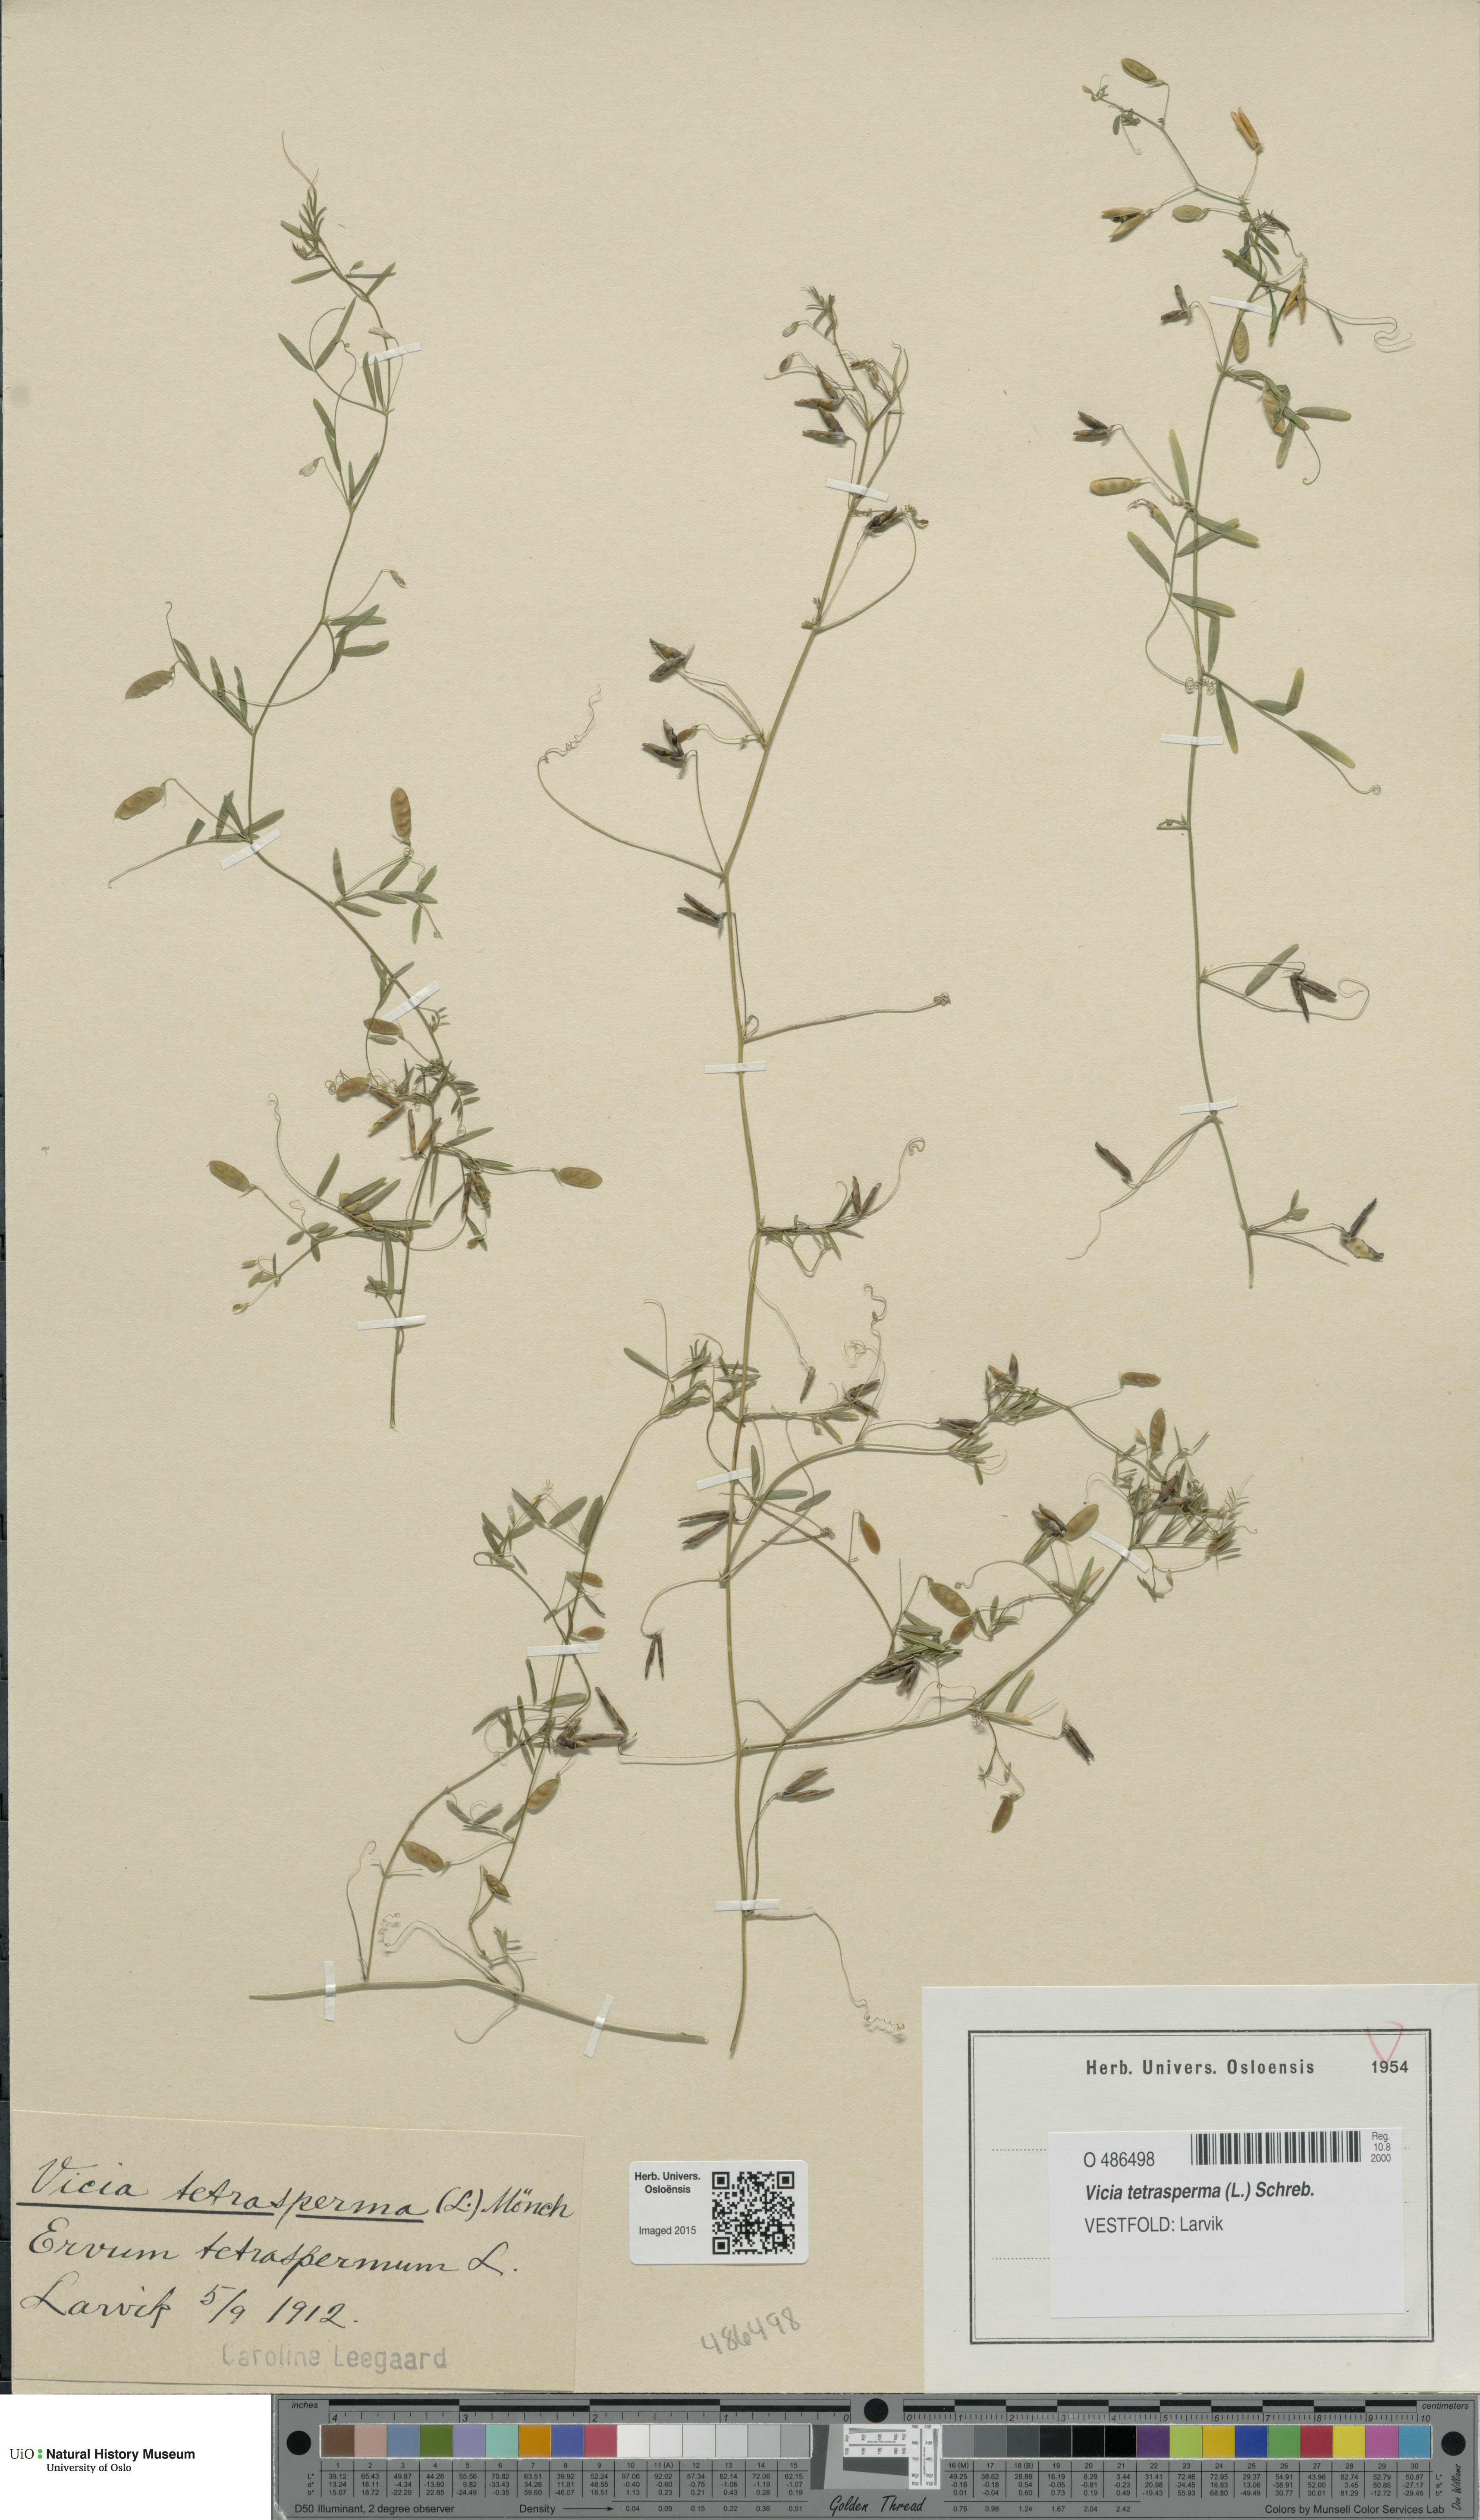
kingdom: Plantae
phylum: Tracheophyta
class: Magnoliopsida
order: Fabales
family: Fabaceae
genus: Vicia
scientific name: Vicia tetrasperma
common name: Smooth tare
